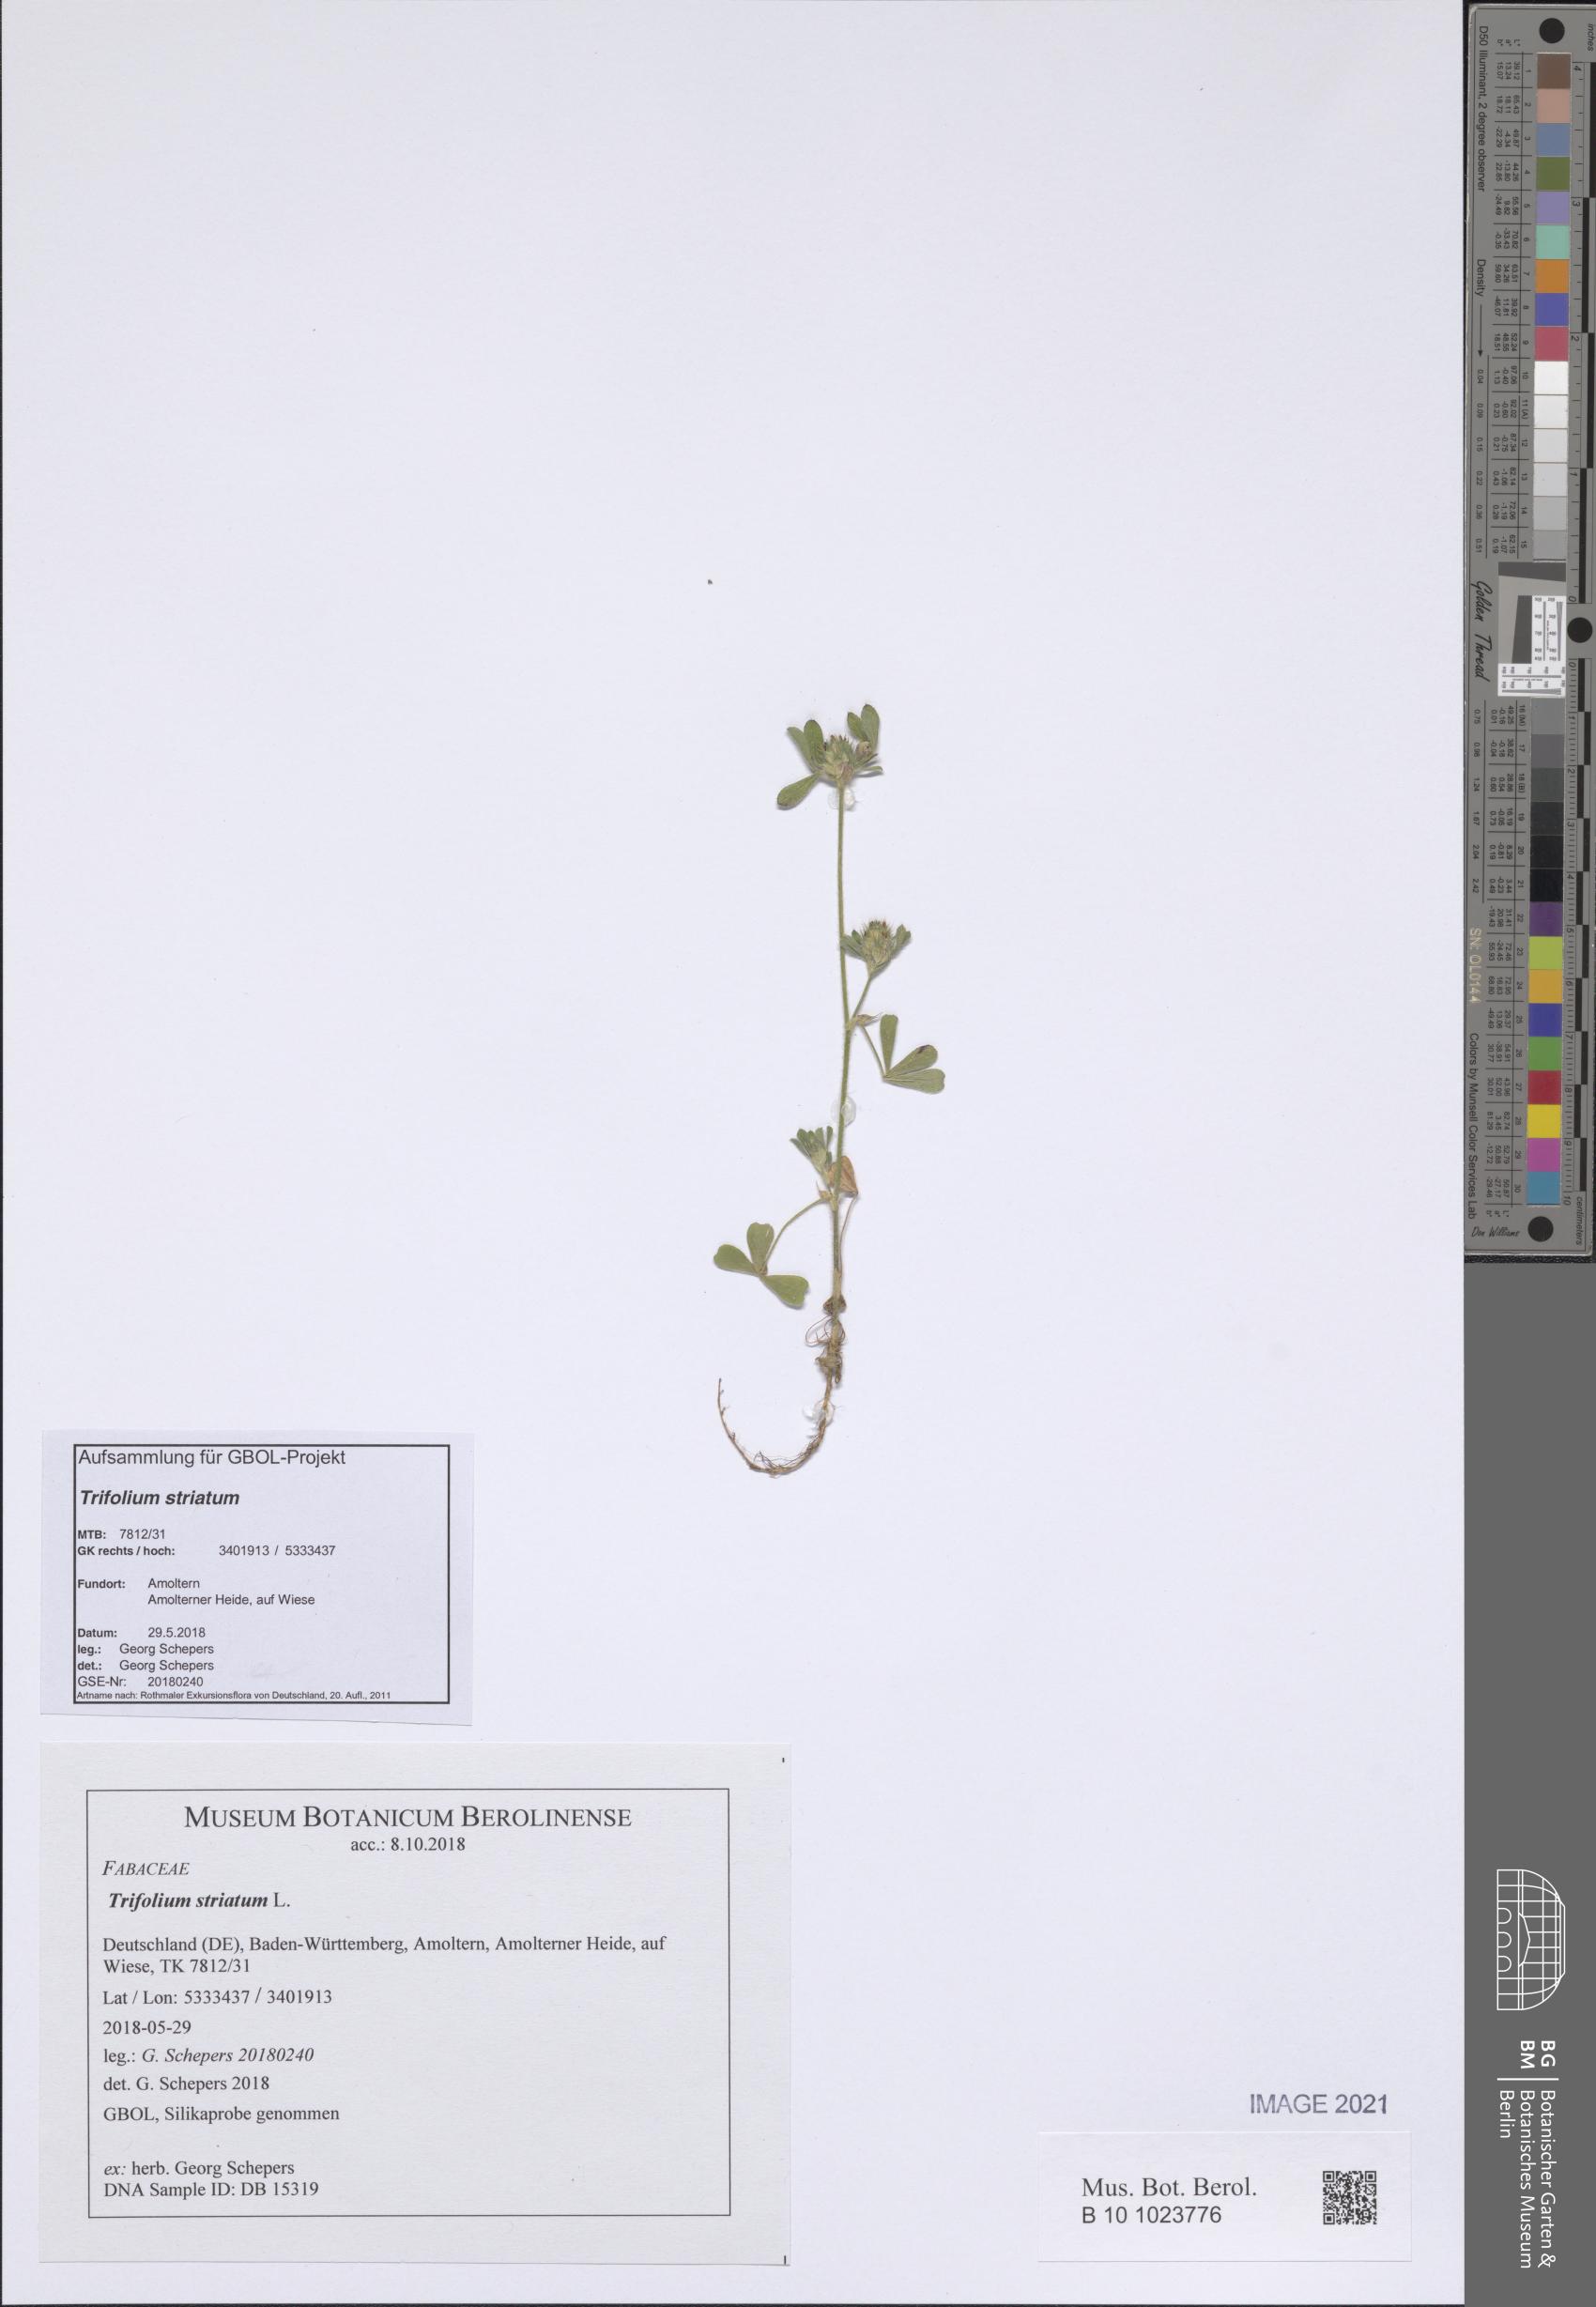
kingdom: Plantae
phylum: Tracheophyta
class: Magnoliopsida
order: Fabales
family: Fabaceae
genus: Trifolium
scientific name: Trifolium striatum
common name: Knotted clover
